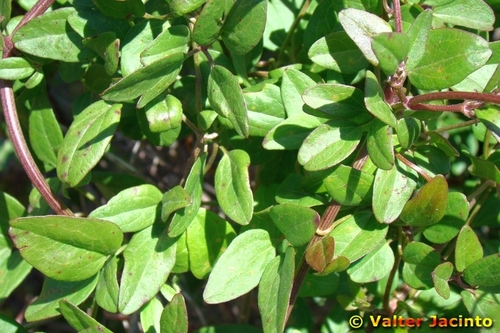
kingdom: Plantae
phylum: Tracheophyta
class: Magnoliopsida
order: Ranunculales
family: Ranunculaceae
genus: Clematis
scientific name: Clematis cirrhosa
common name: Early virgin's-bower
